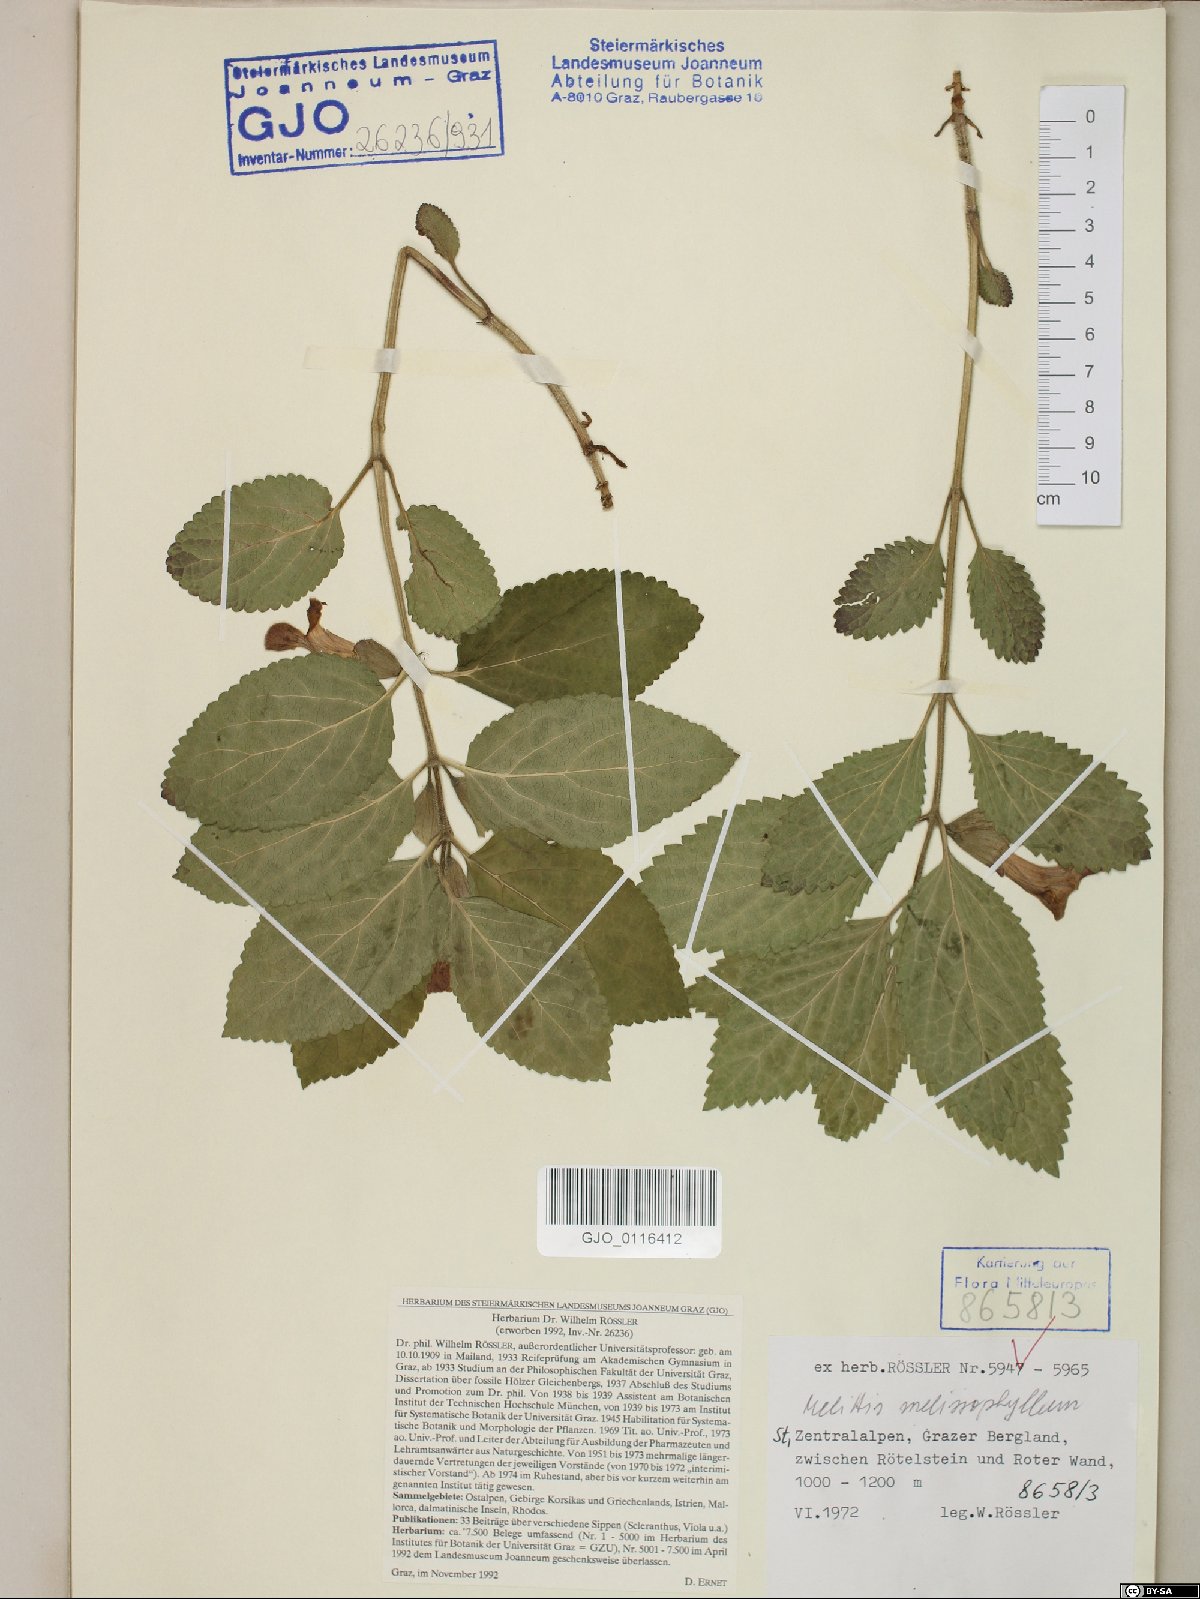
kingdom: Plantae
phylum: Tracheophyta
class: Magnoliopsida
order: Lamiales
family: Lamiaceae
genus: Melittis
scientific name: Melittis melissophyllum
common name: Bastard balm
